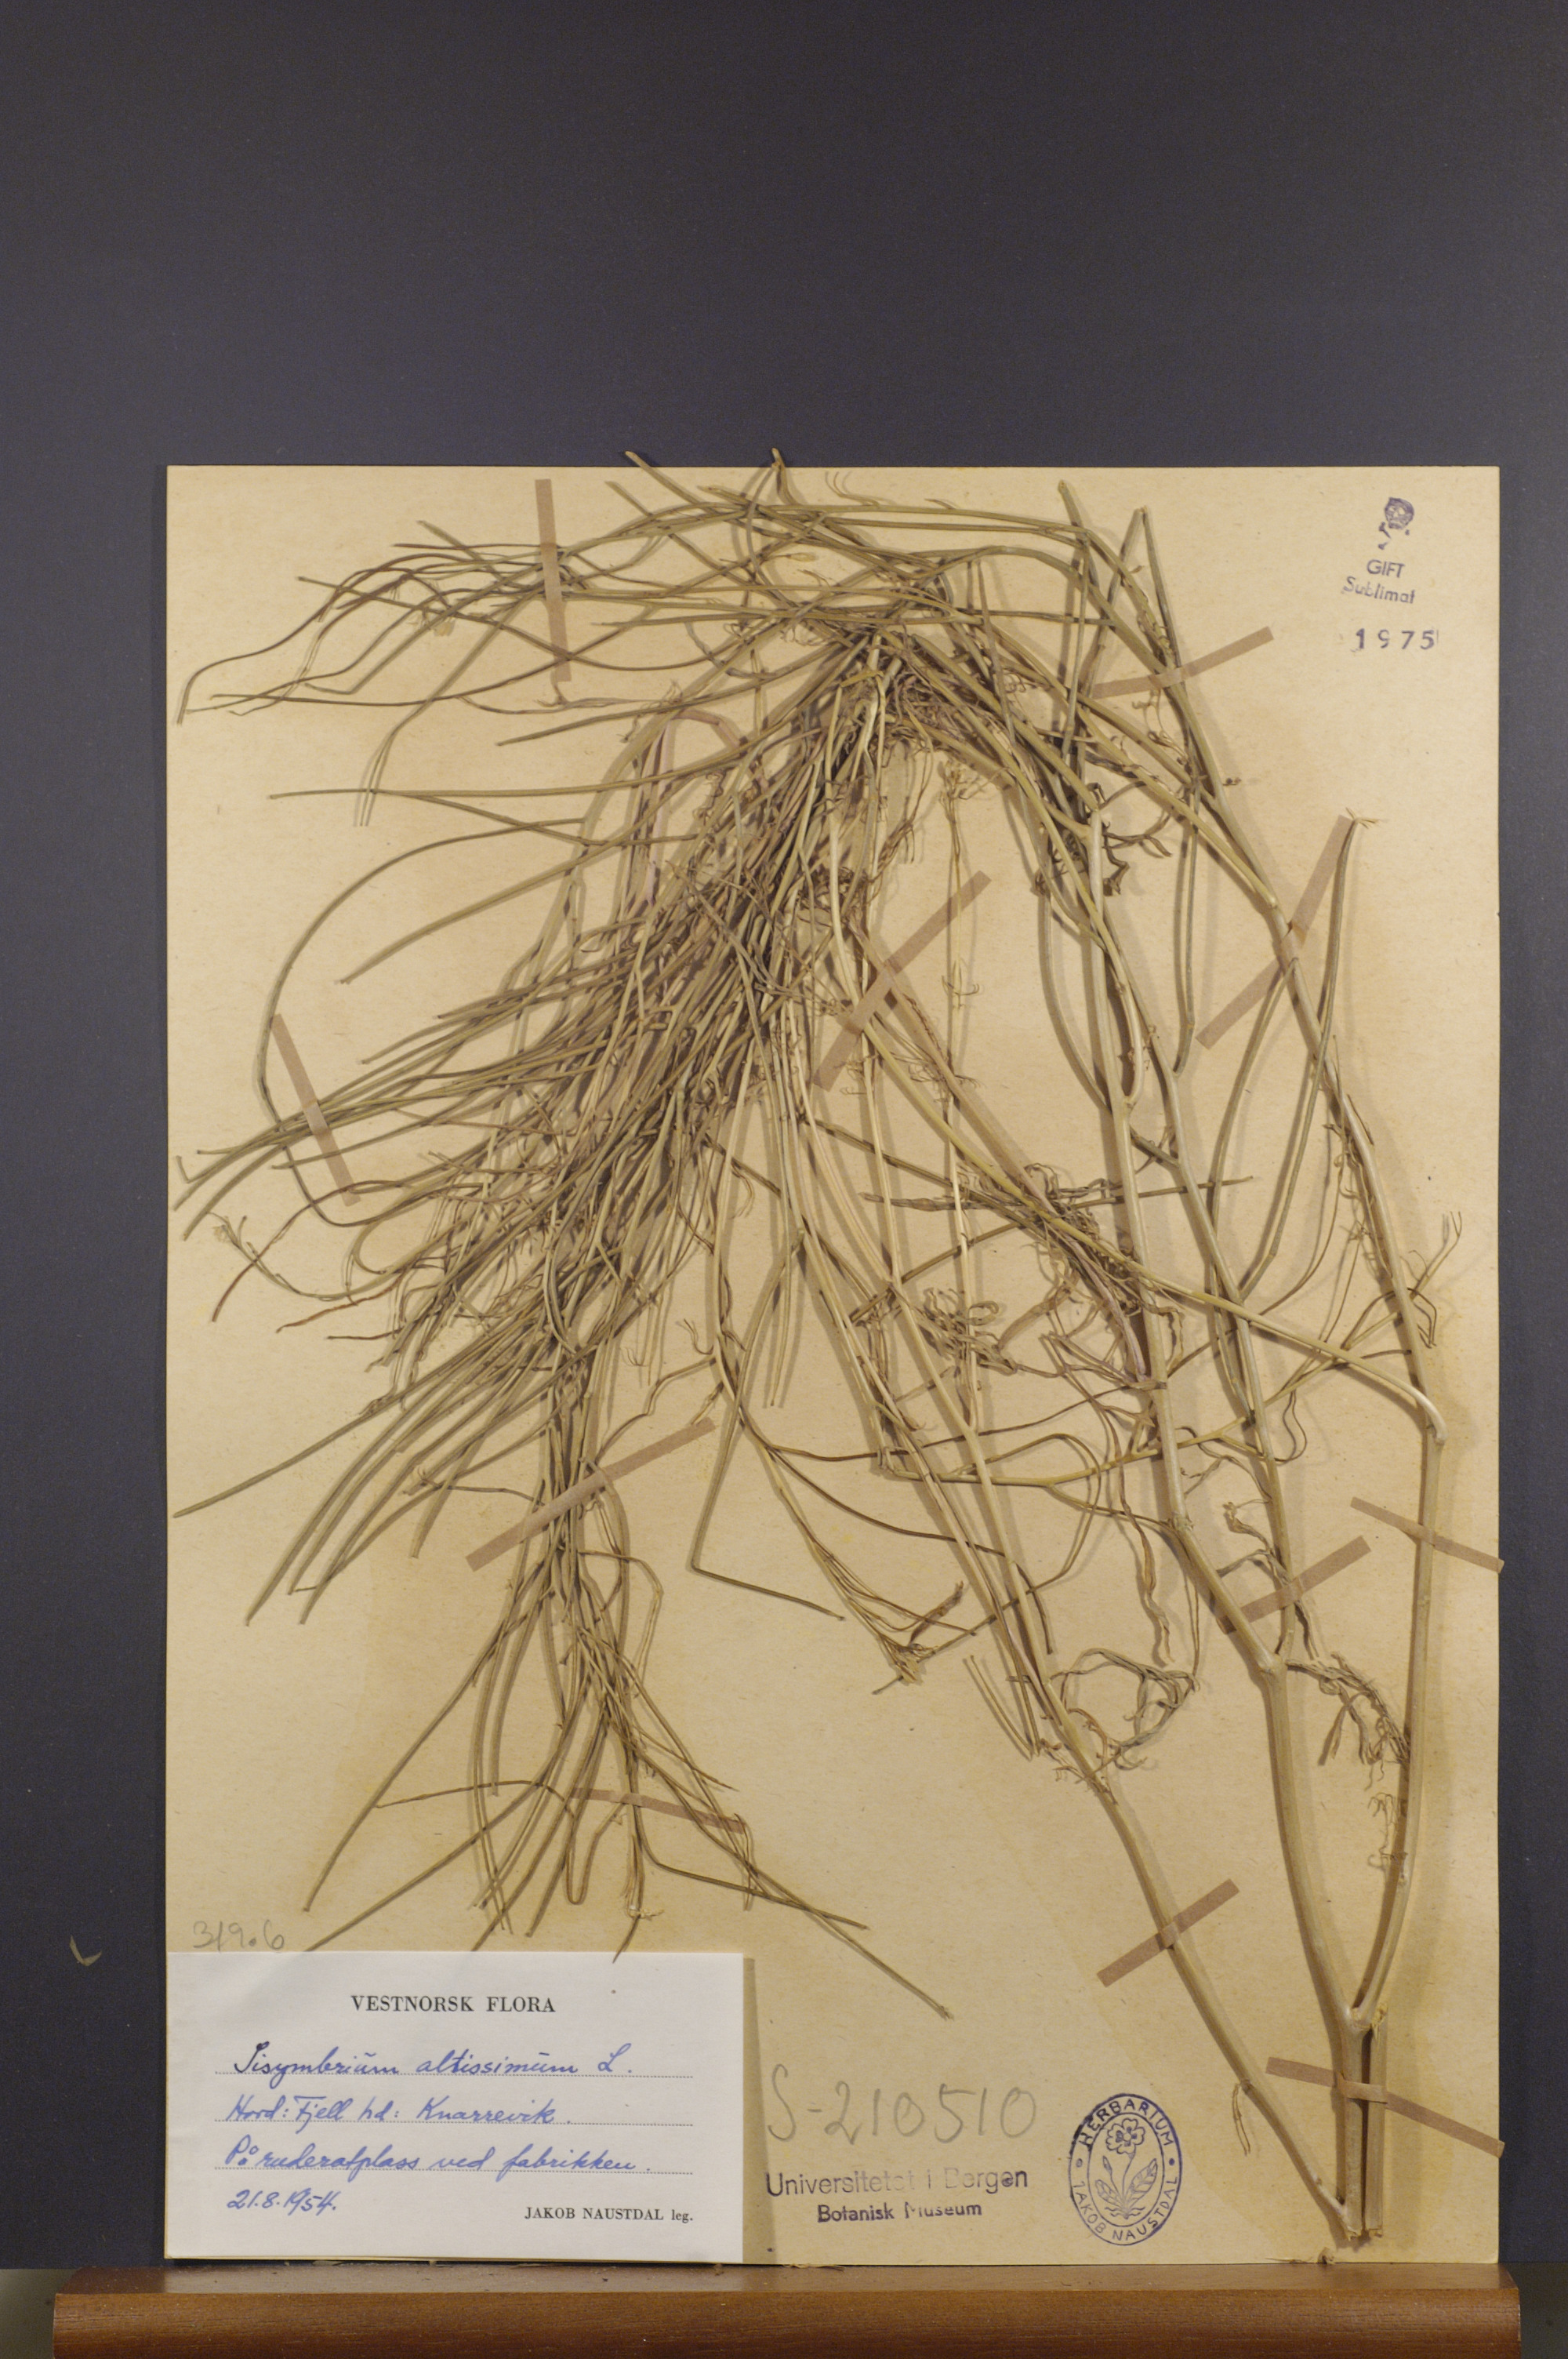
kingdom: Plantae
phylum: Tracheophyta
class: Magnoliopsida
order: Brassicales
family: Brassicaceae
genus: Sisymbrium
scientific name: Sisymbrium altissimum
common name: Tall rocket
